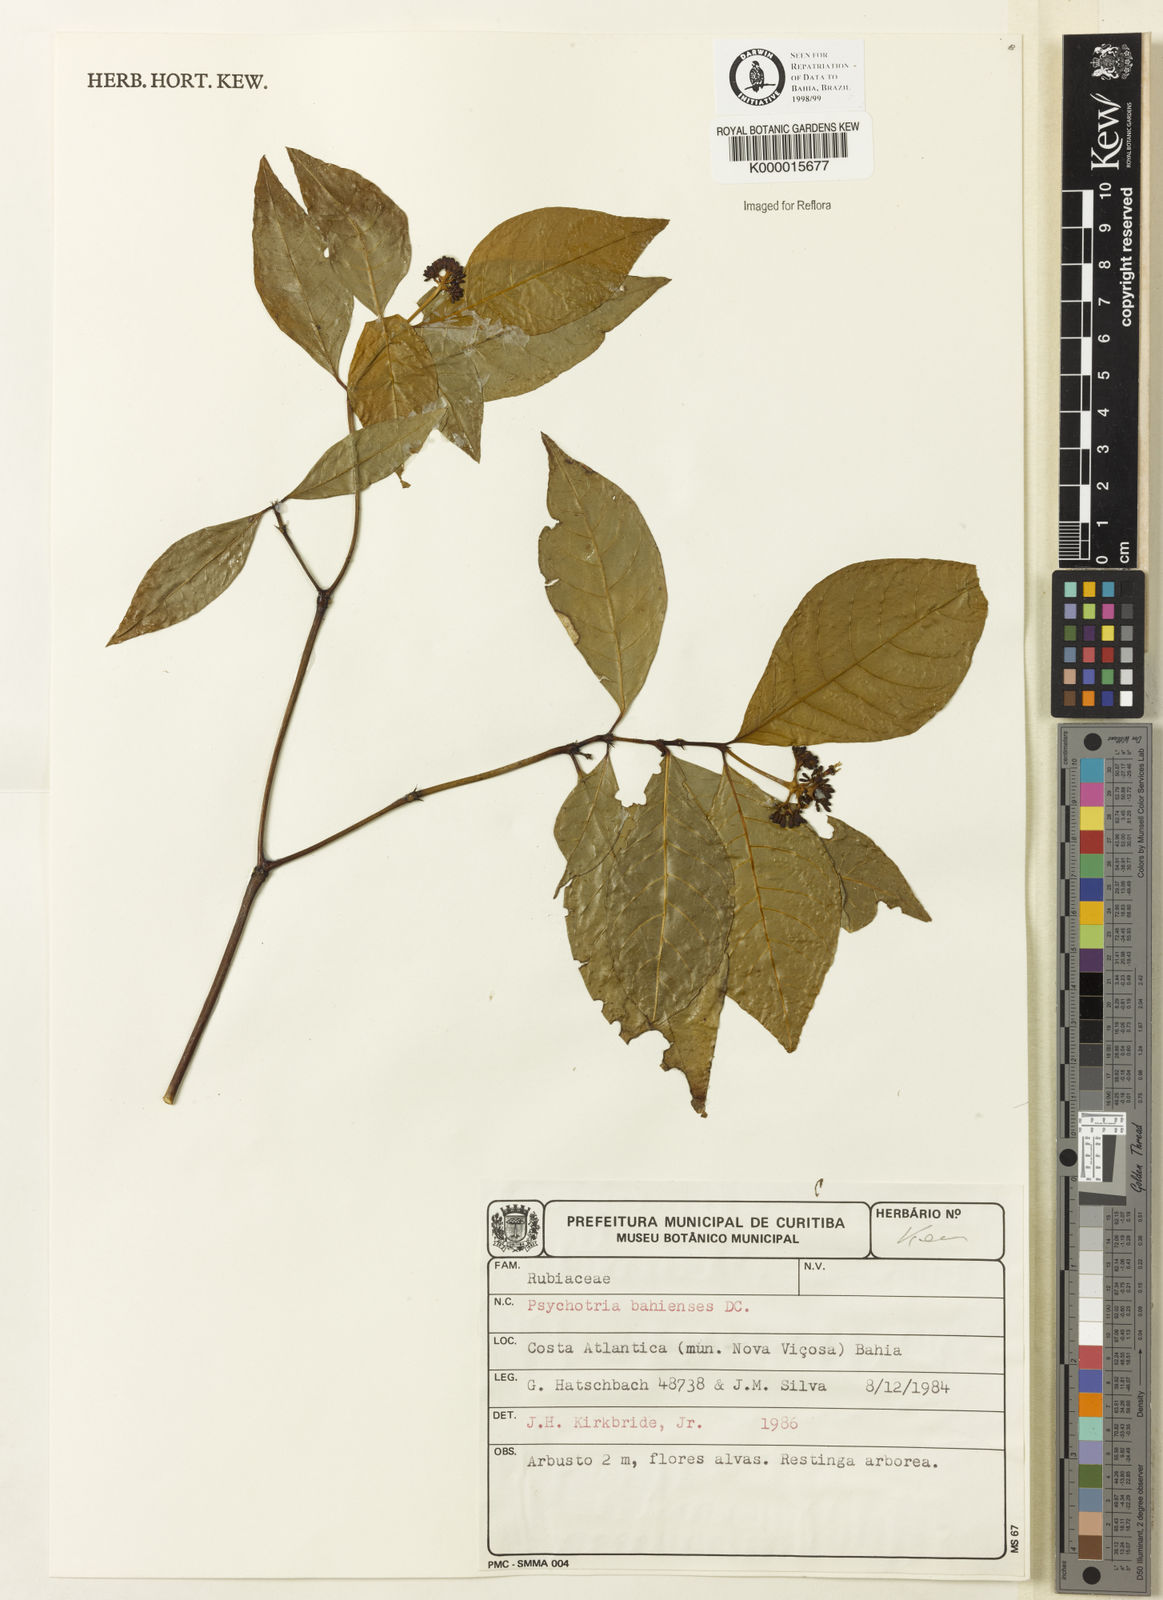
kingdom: Plantae
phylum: Tracheophyta
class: Magnoliopsida
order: Gentianales
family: Rubiaceae
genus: Psychotria
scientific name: Psychotria bahiensis
